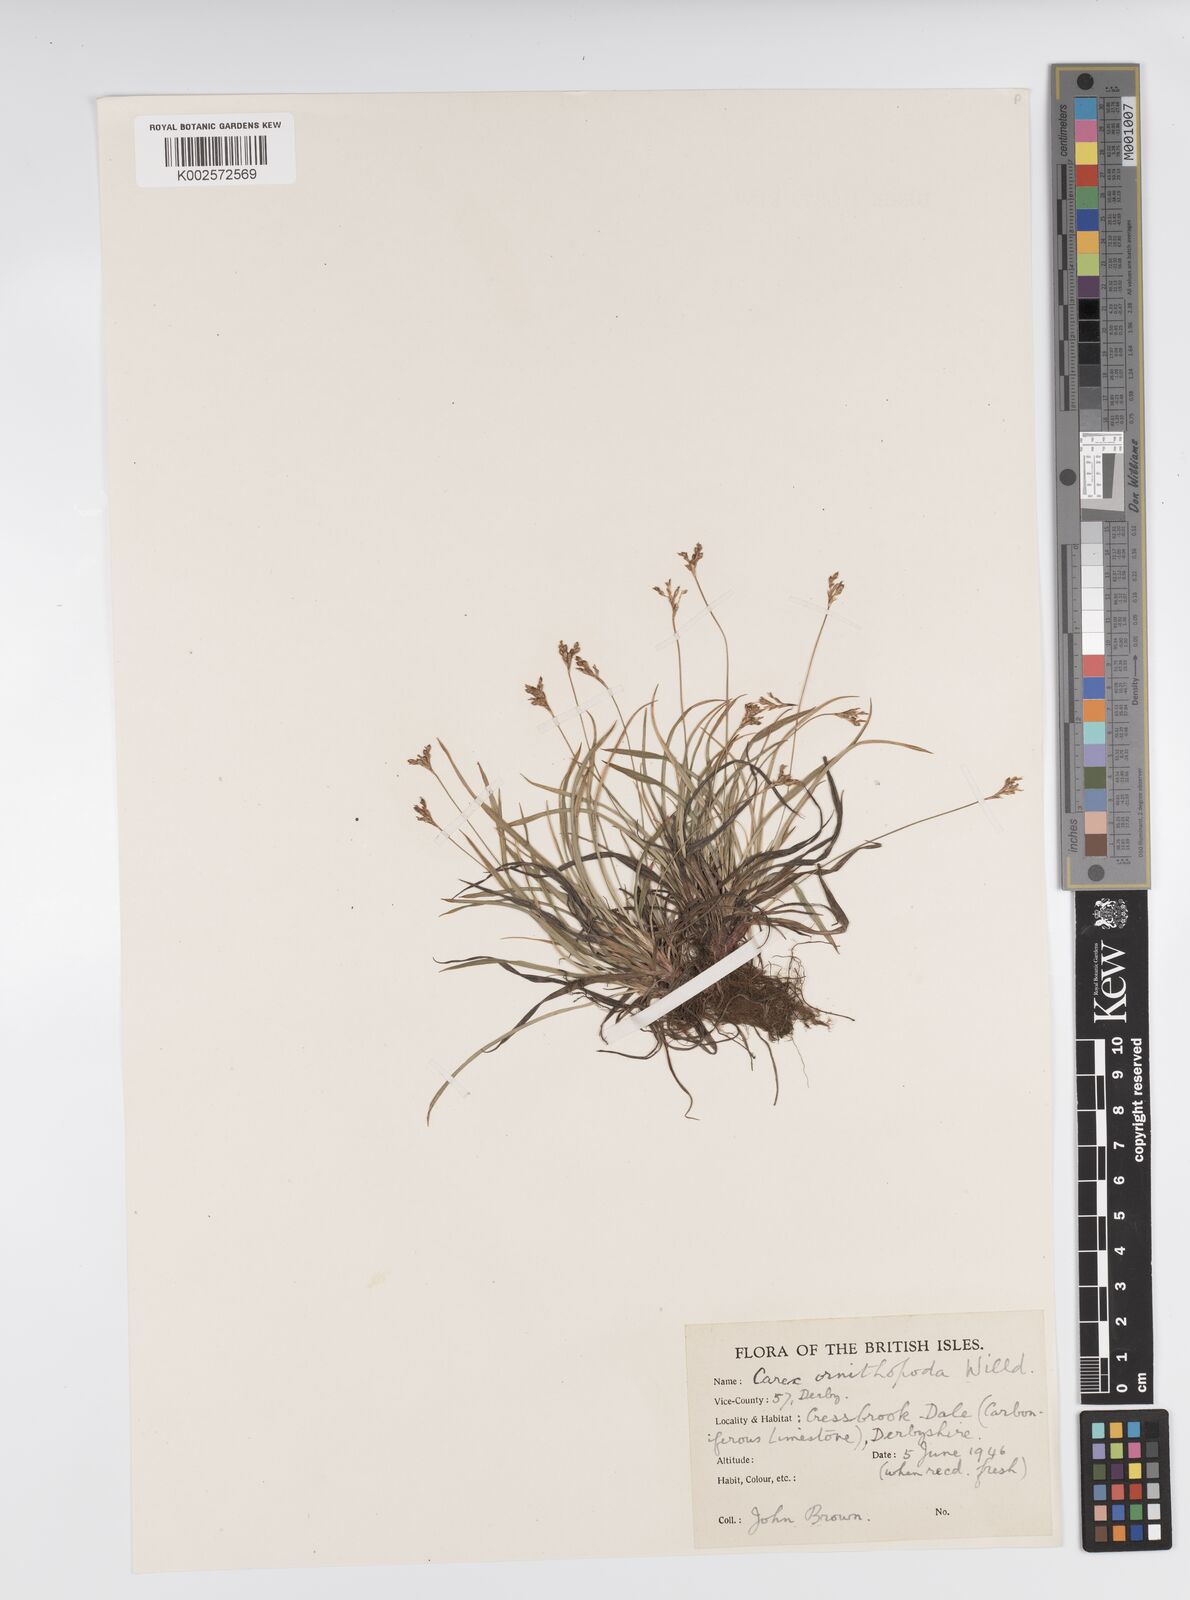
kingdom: Plantae
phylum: Tracheophyta
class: Liliopsida
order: Poales
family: Cyperaceae
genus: Carex
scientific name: Carex ornithopoda
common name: Bird's-foot sedge
